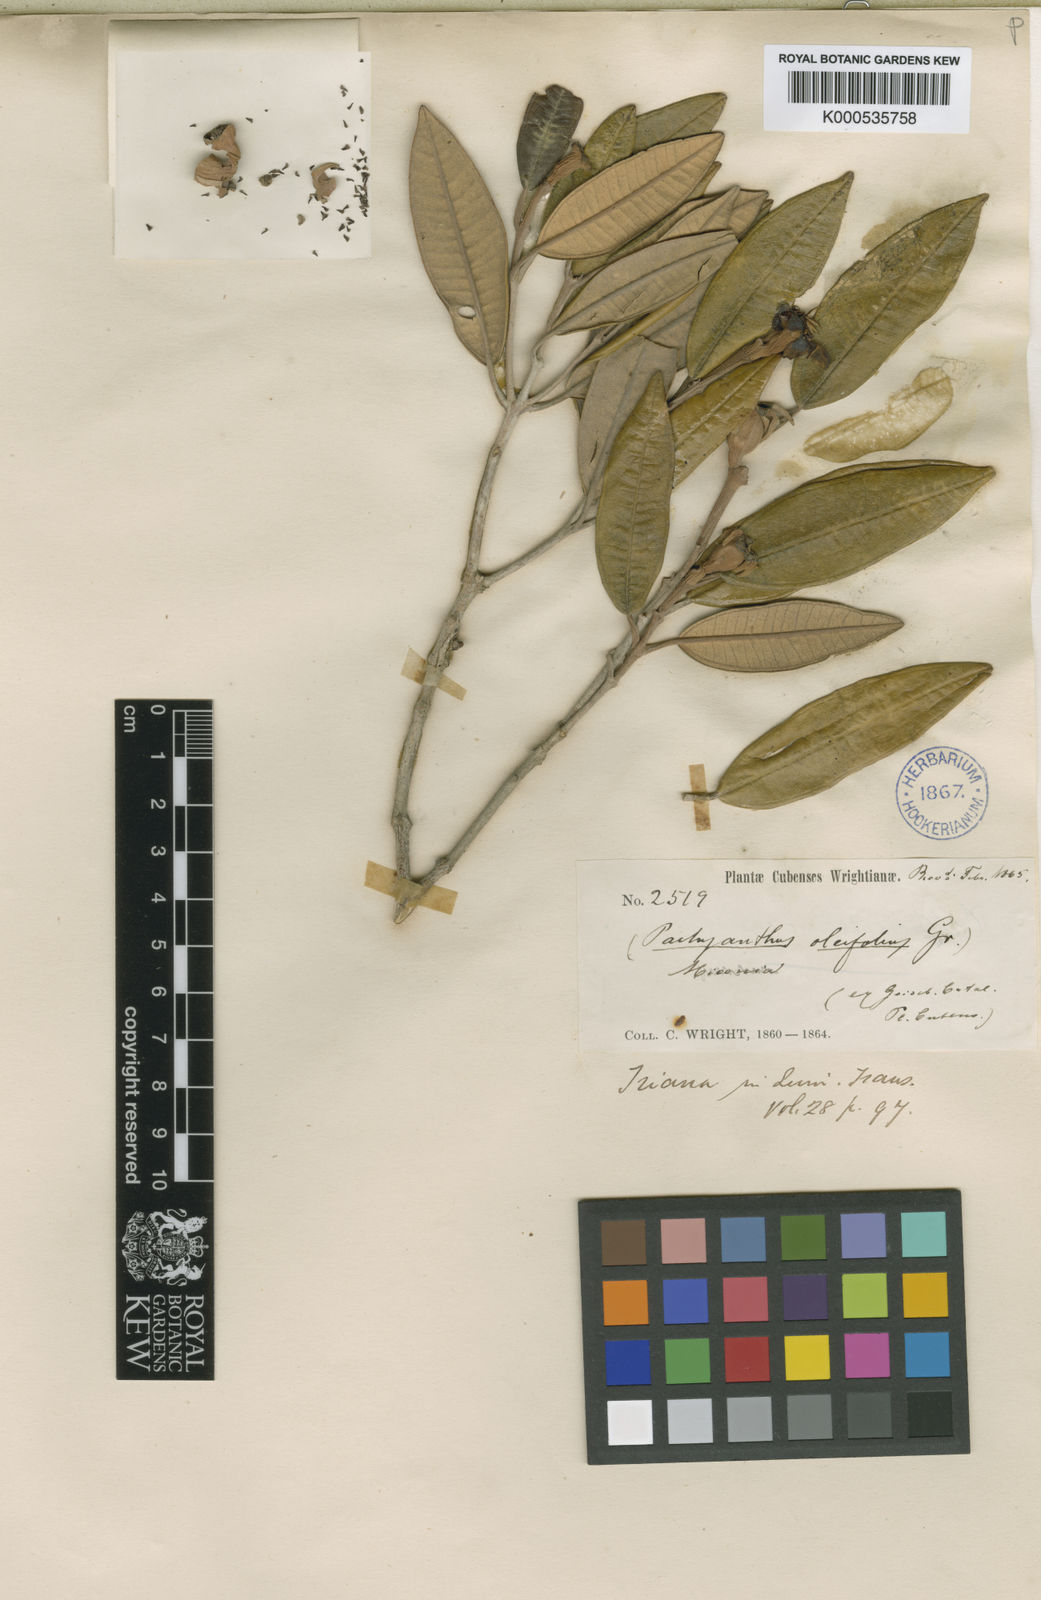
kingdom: Plantae
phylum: Tracheophyta
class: Magnoliopsida
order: Myrtales
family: Melastomataceae
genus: Miconia
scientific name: Miconia oleifolia
